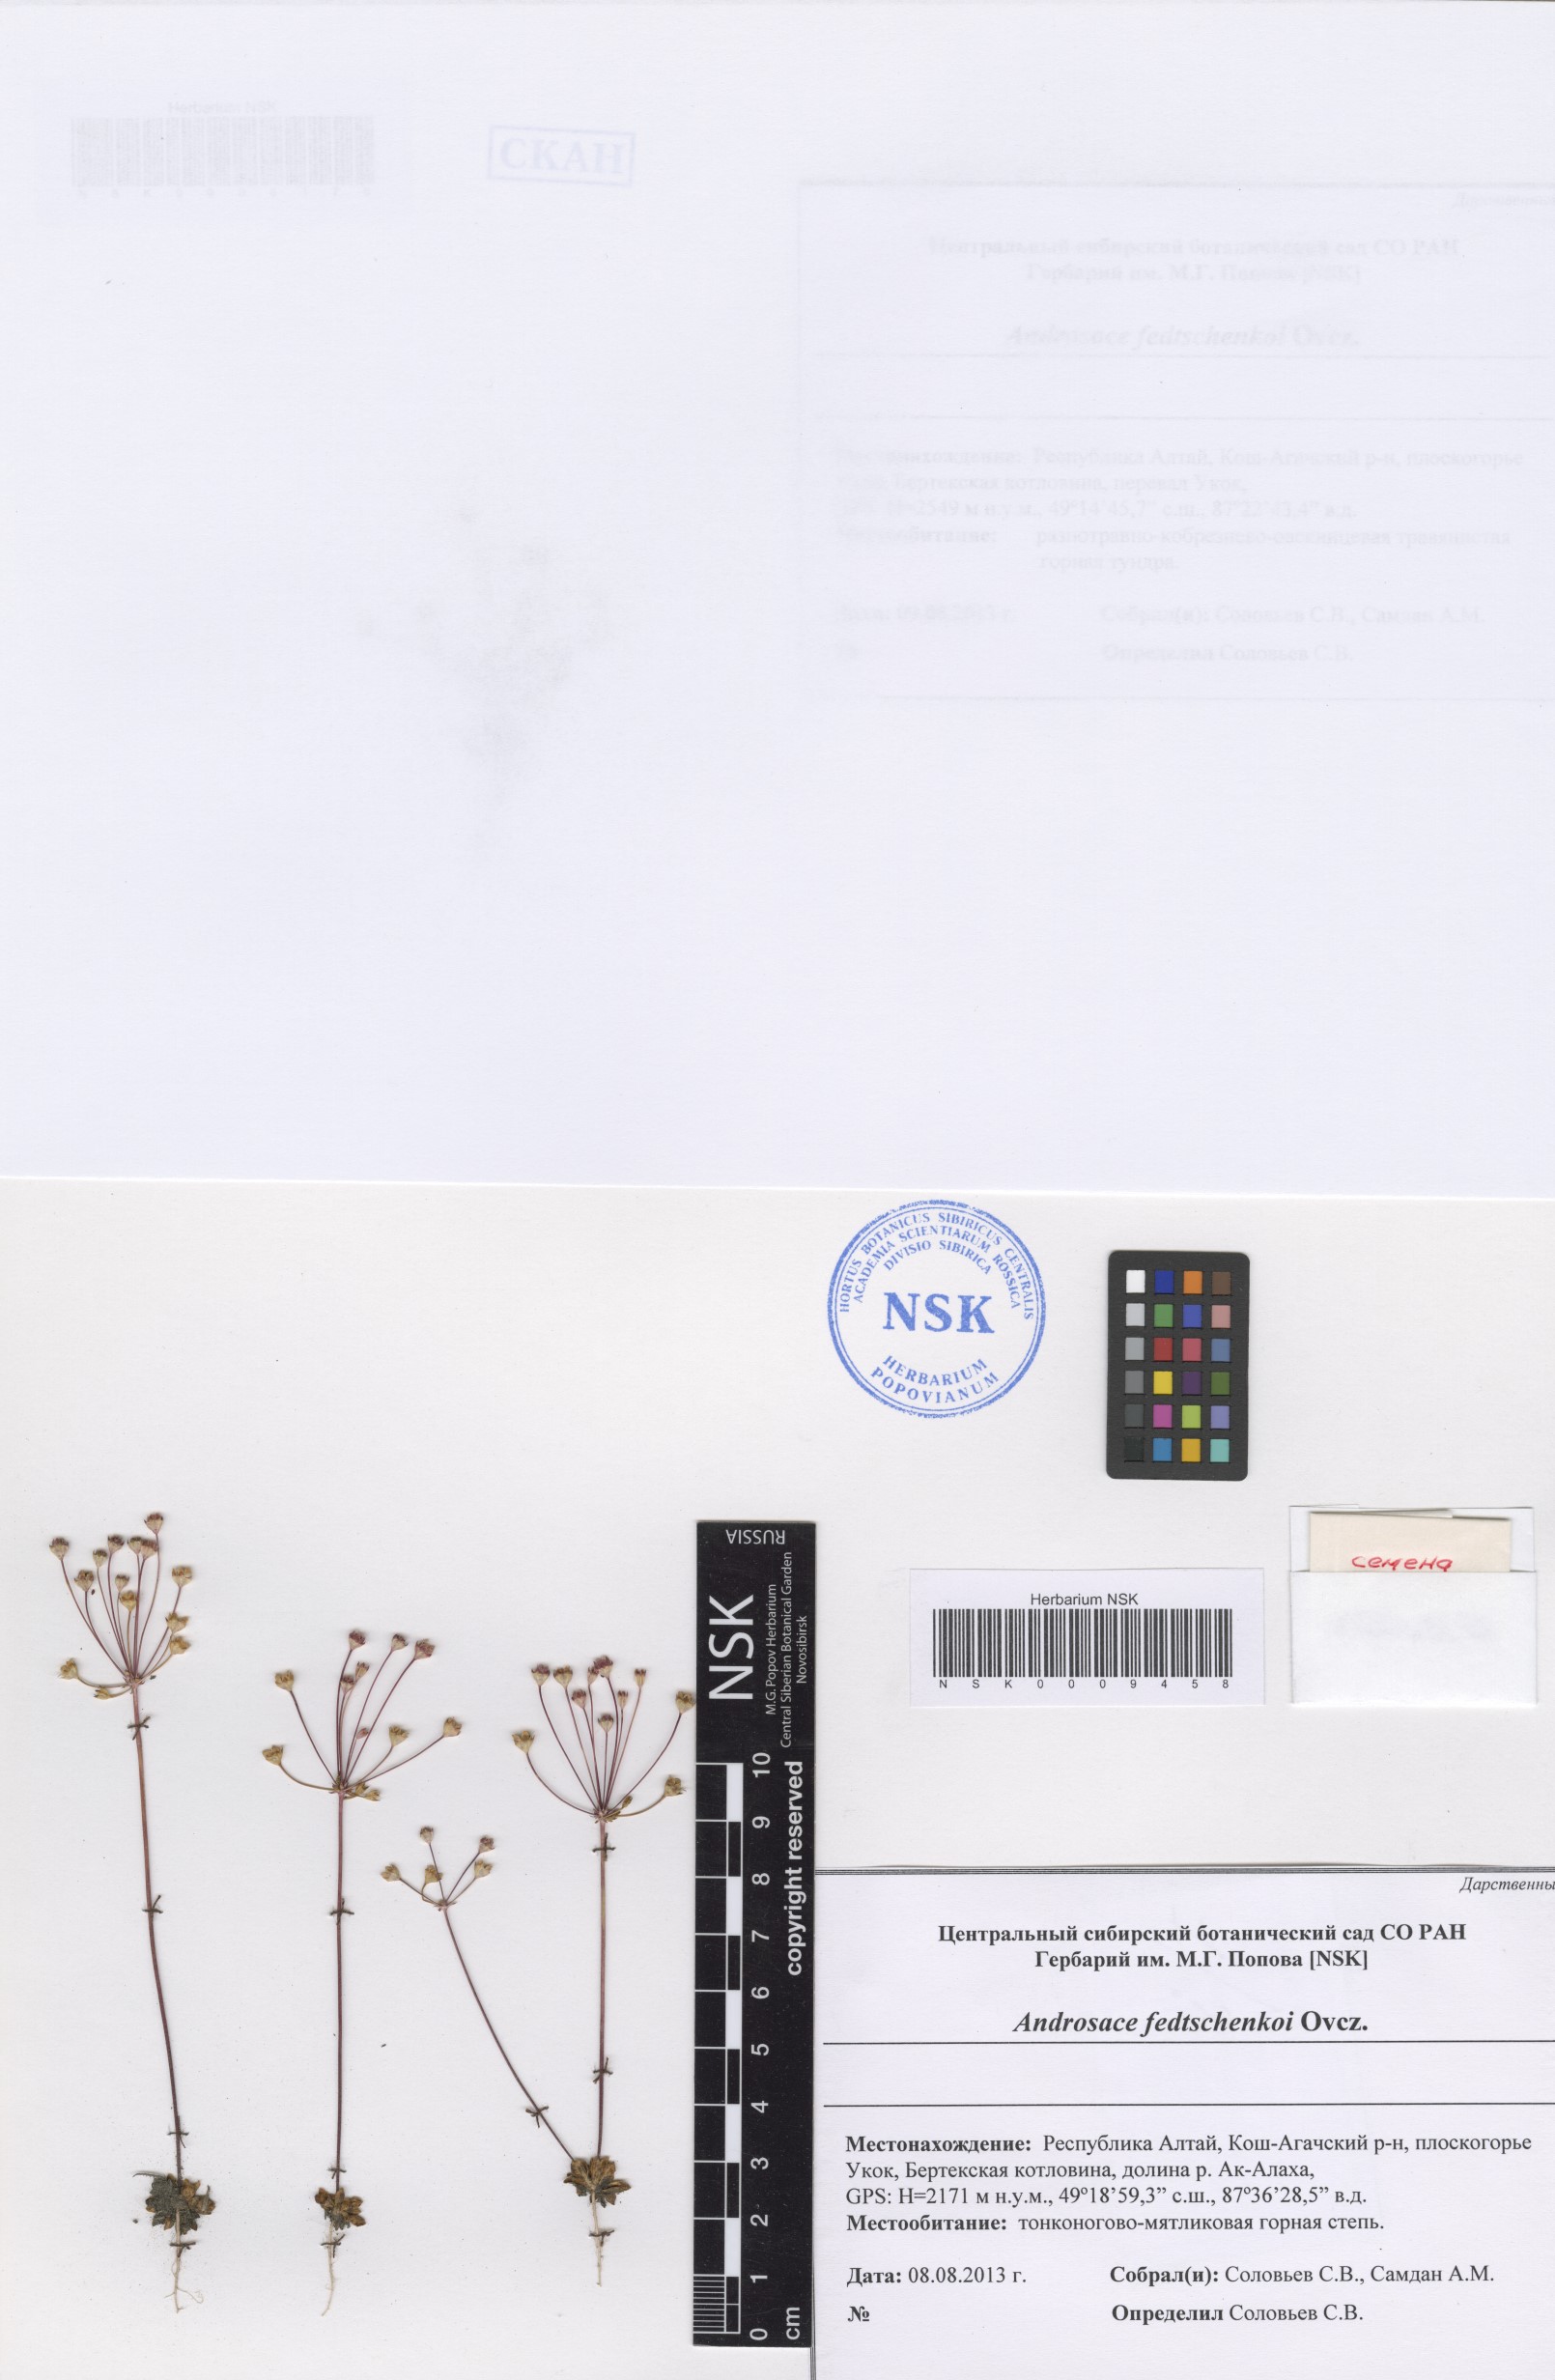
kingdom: Plantae
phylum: Tracheophyta
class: Magnoliopsida
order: Ericales
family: Primulaceae
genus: Androsace
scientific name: Androsace fedtschenkoi
